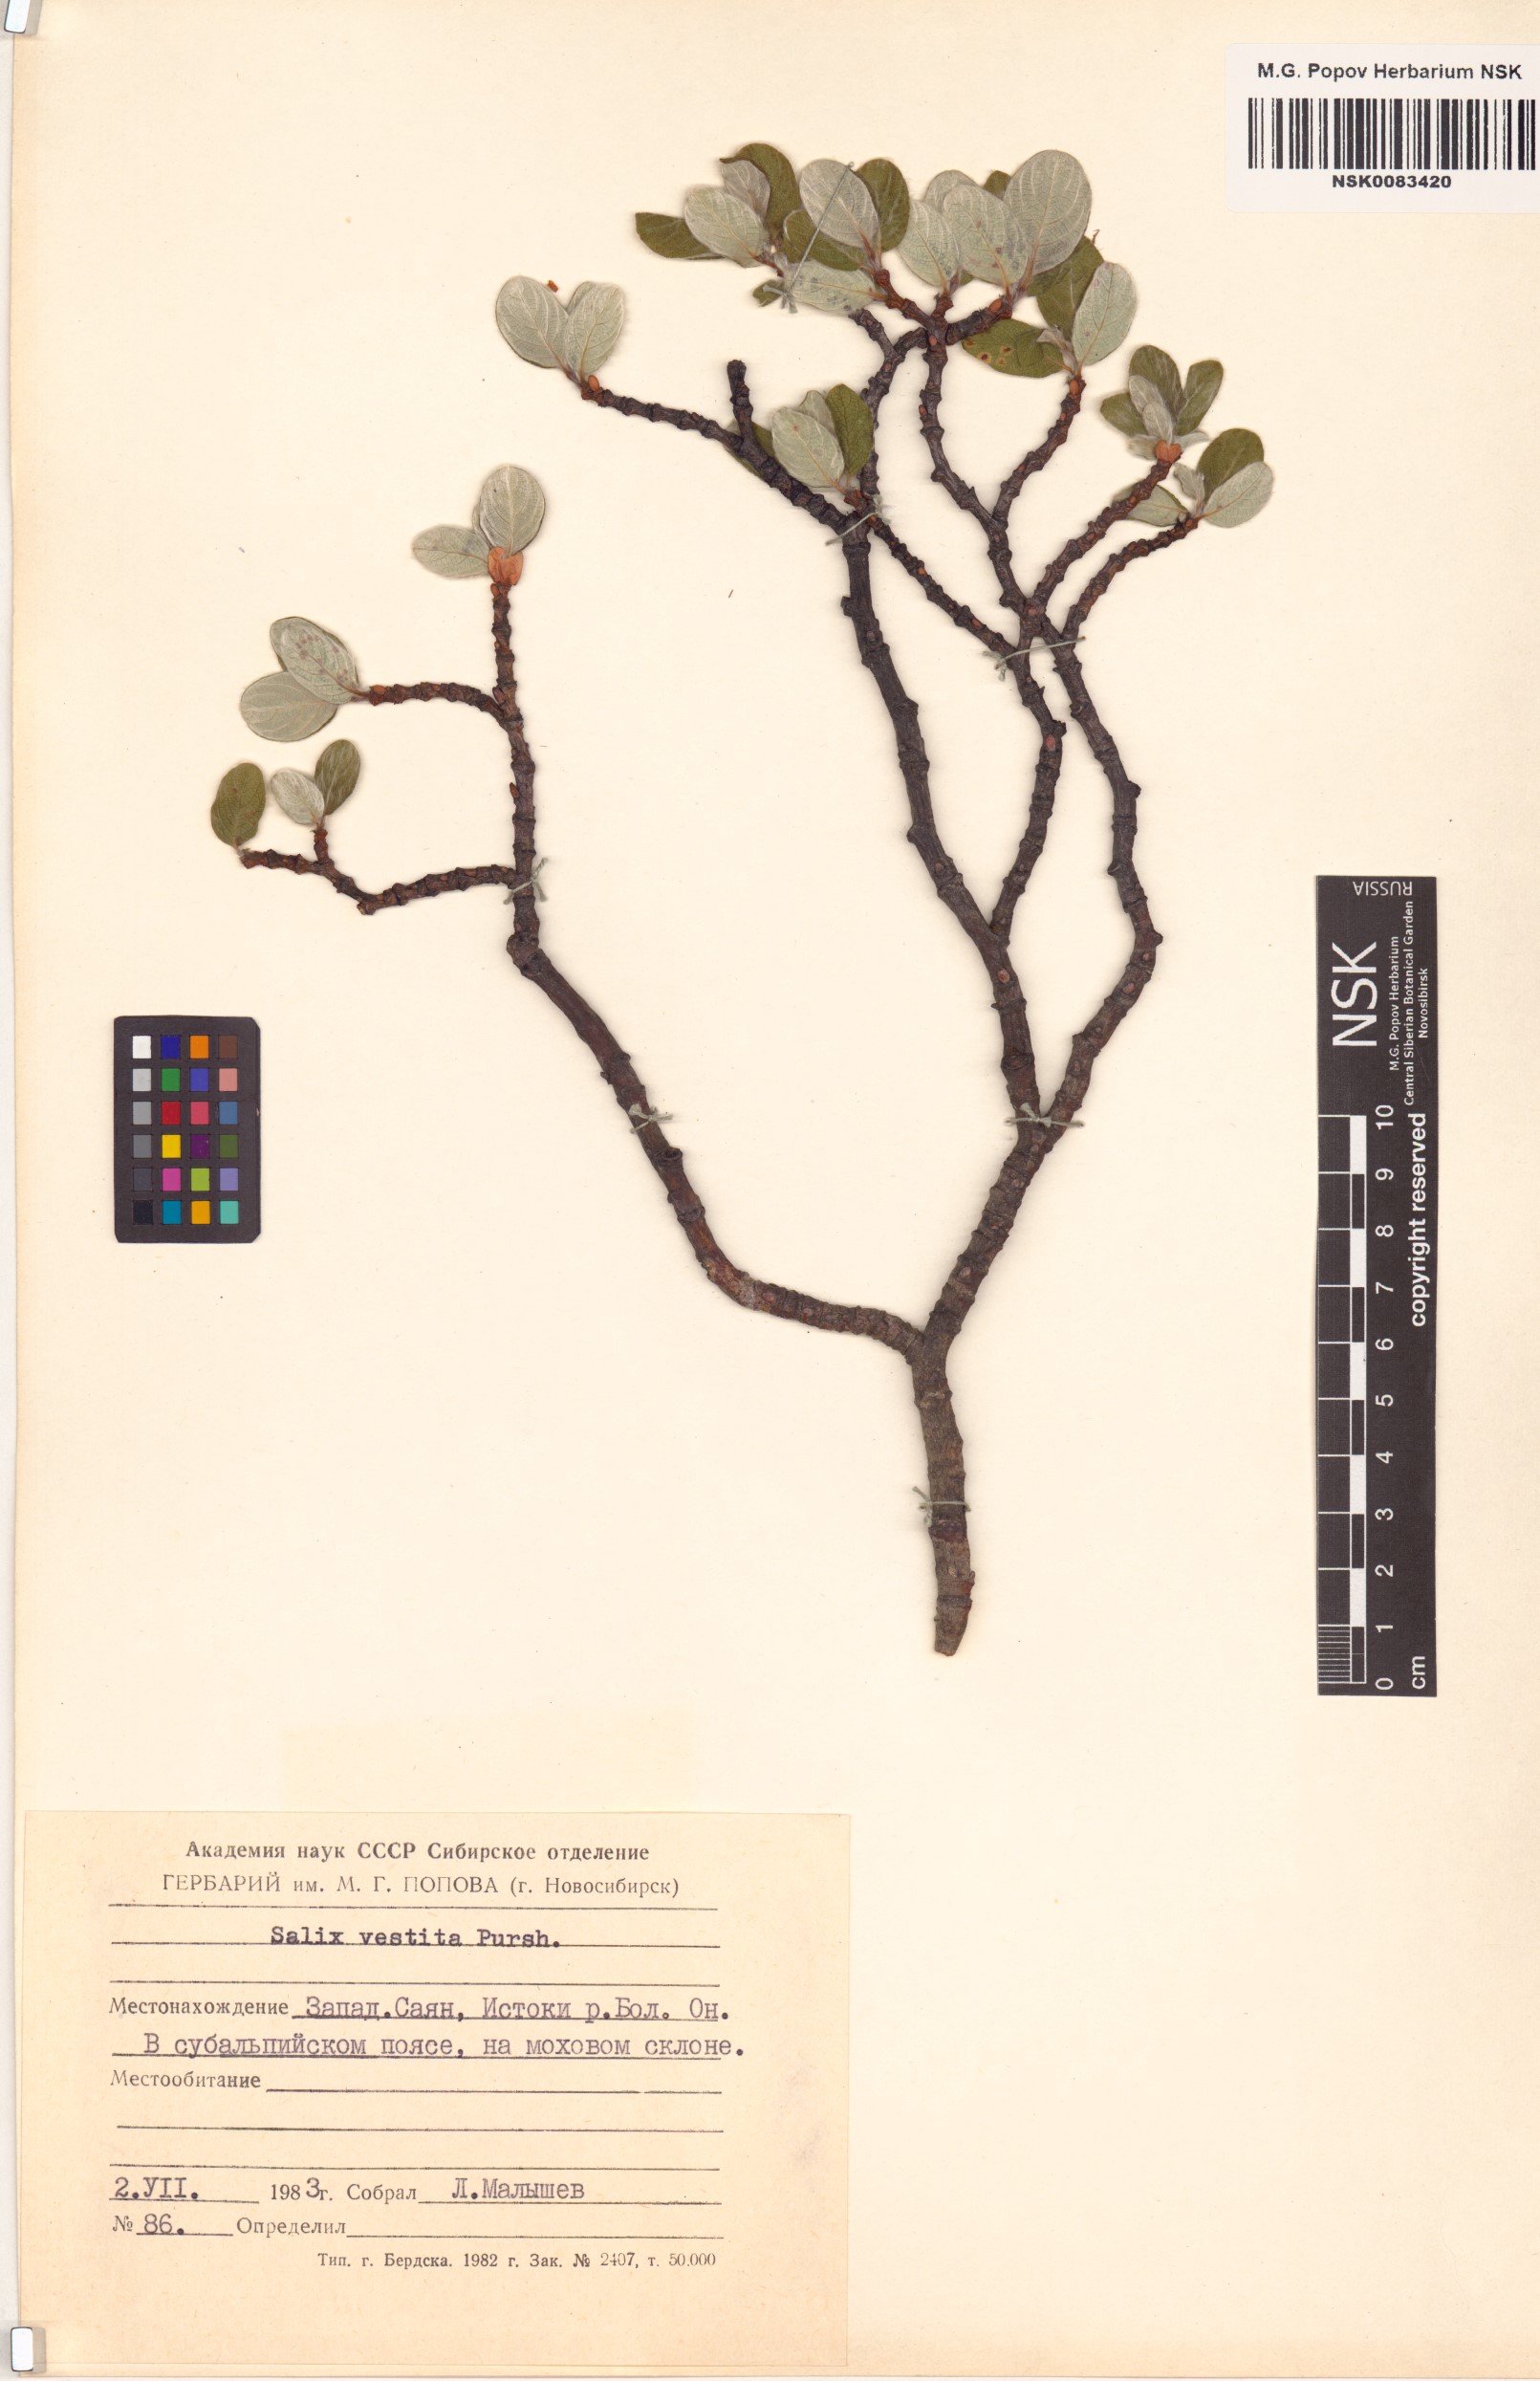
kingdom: Plantae
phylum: Tracheophyta
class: Magnoliopsida
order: Malpighiales
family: Salicaceae
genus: Salix
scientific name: Salix vestita
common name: Hairy willow
